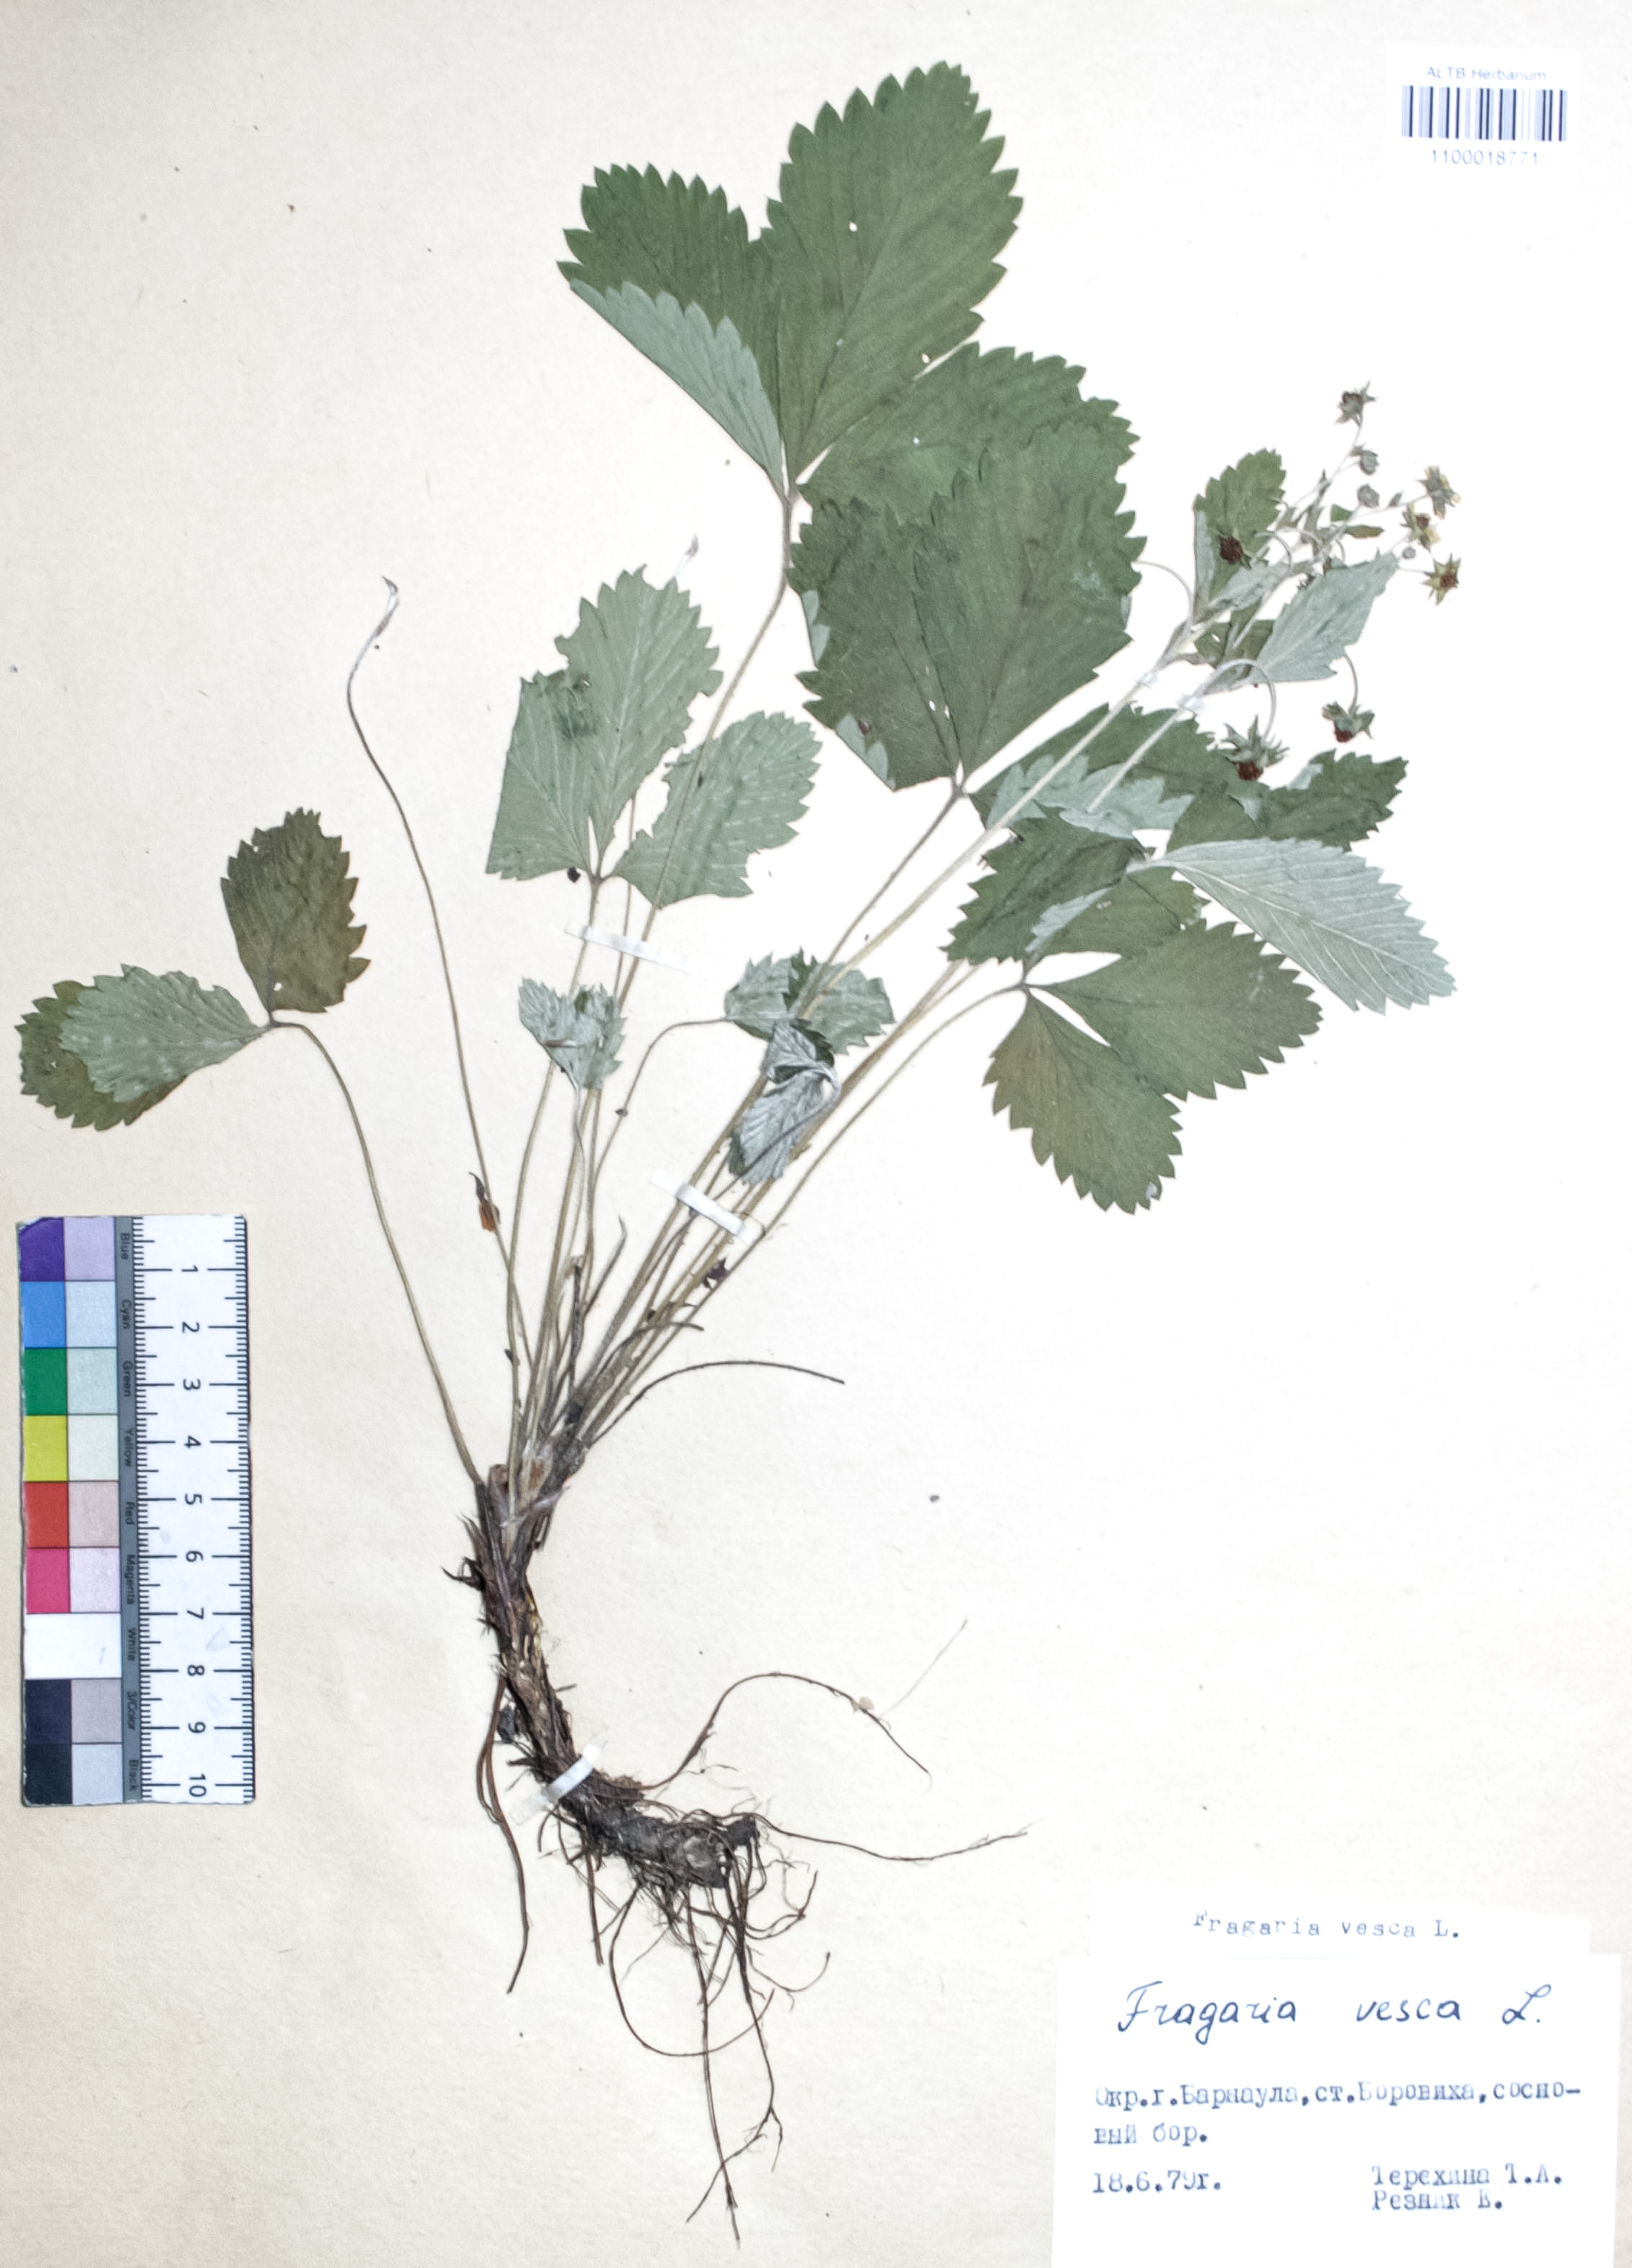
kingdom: Plantae
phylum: Tracheophyta
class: Magnoliopsida
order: Rosales
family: Rosaceae
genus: Fragaria
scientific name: Fragaria vesca
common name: Wild strawberry
